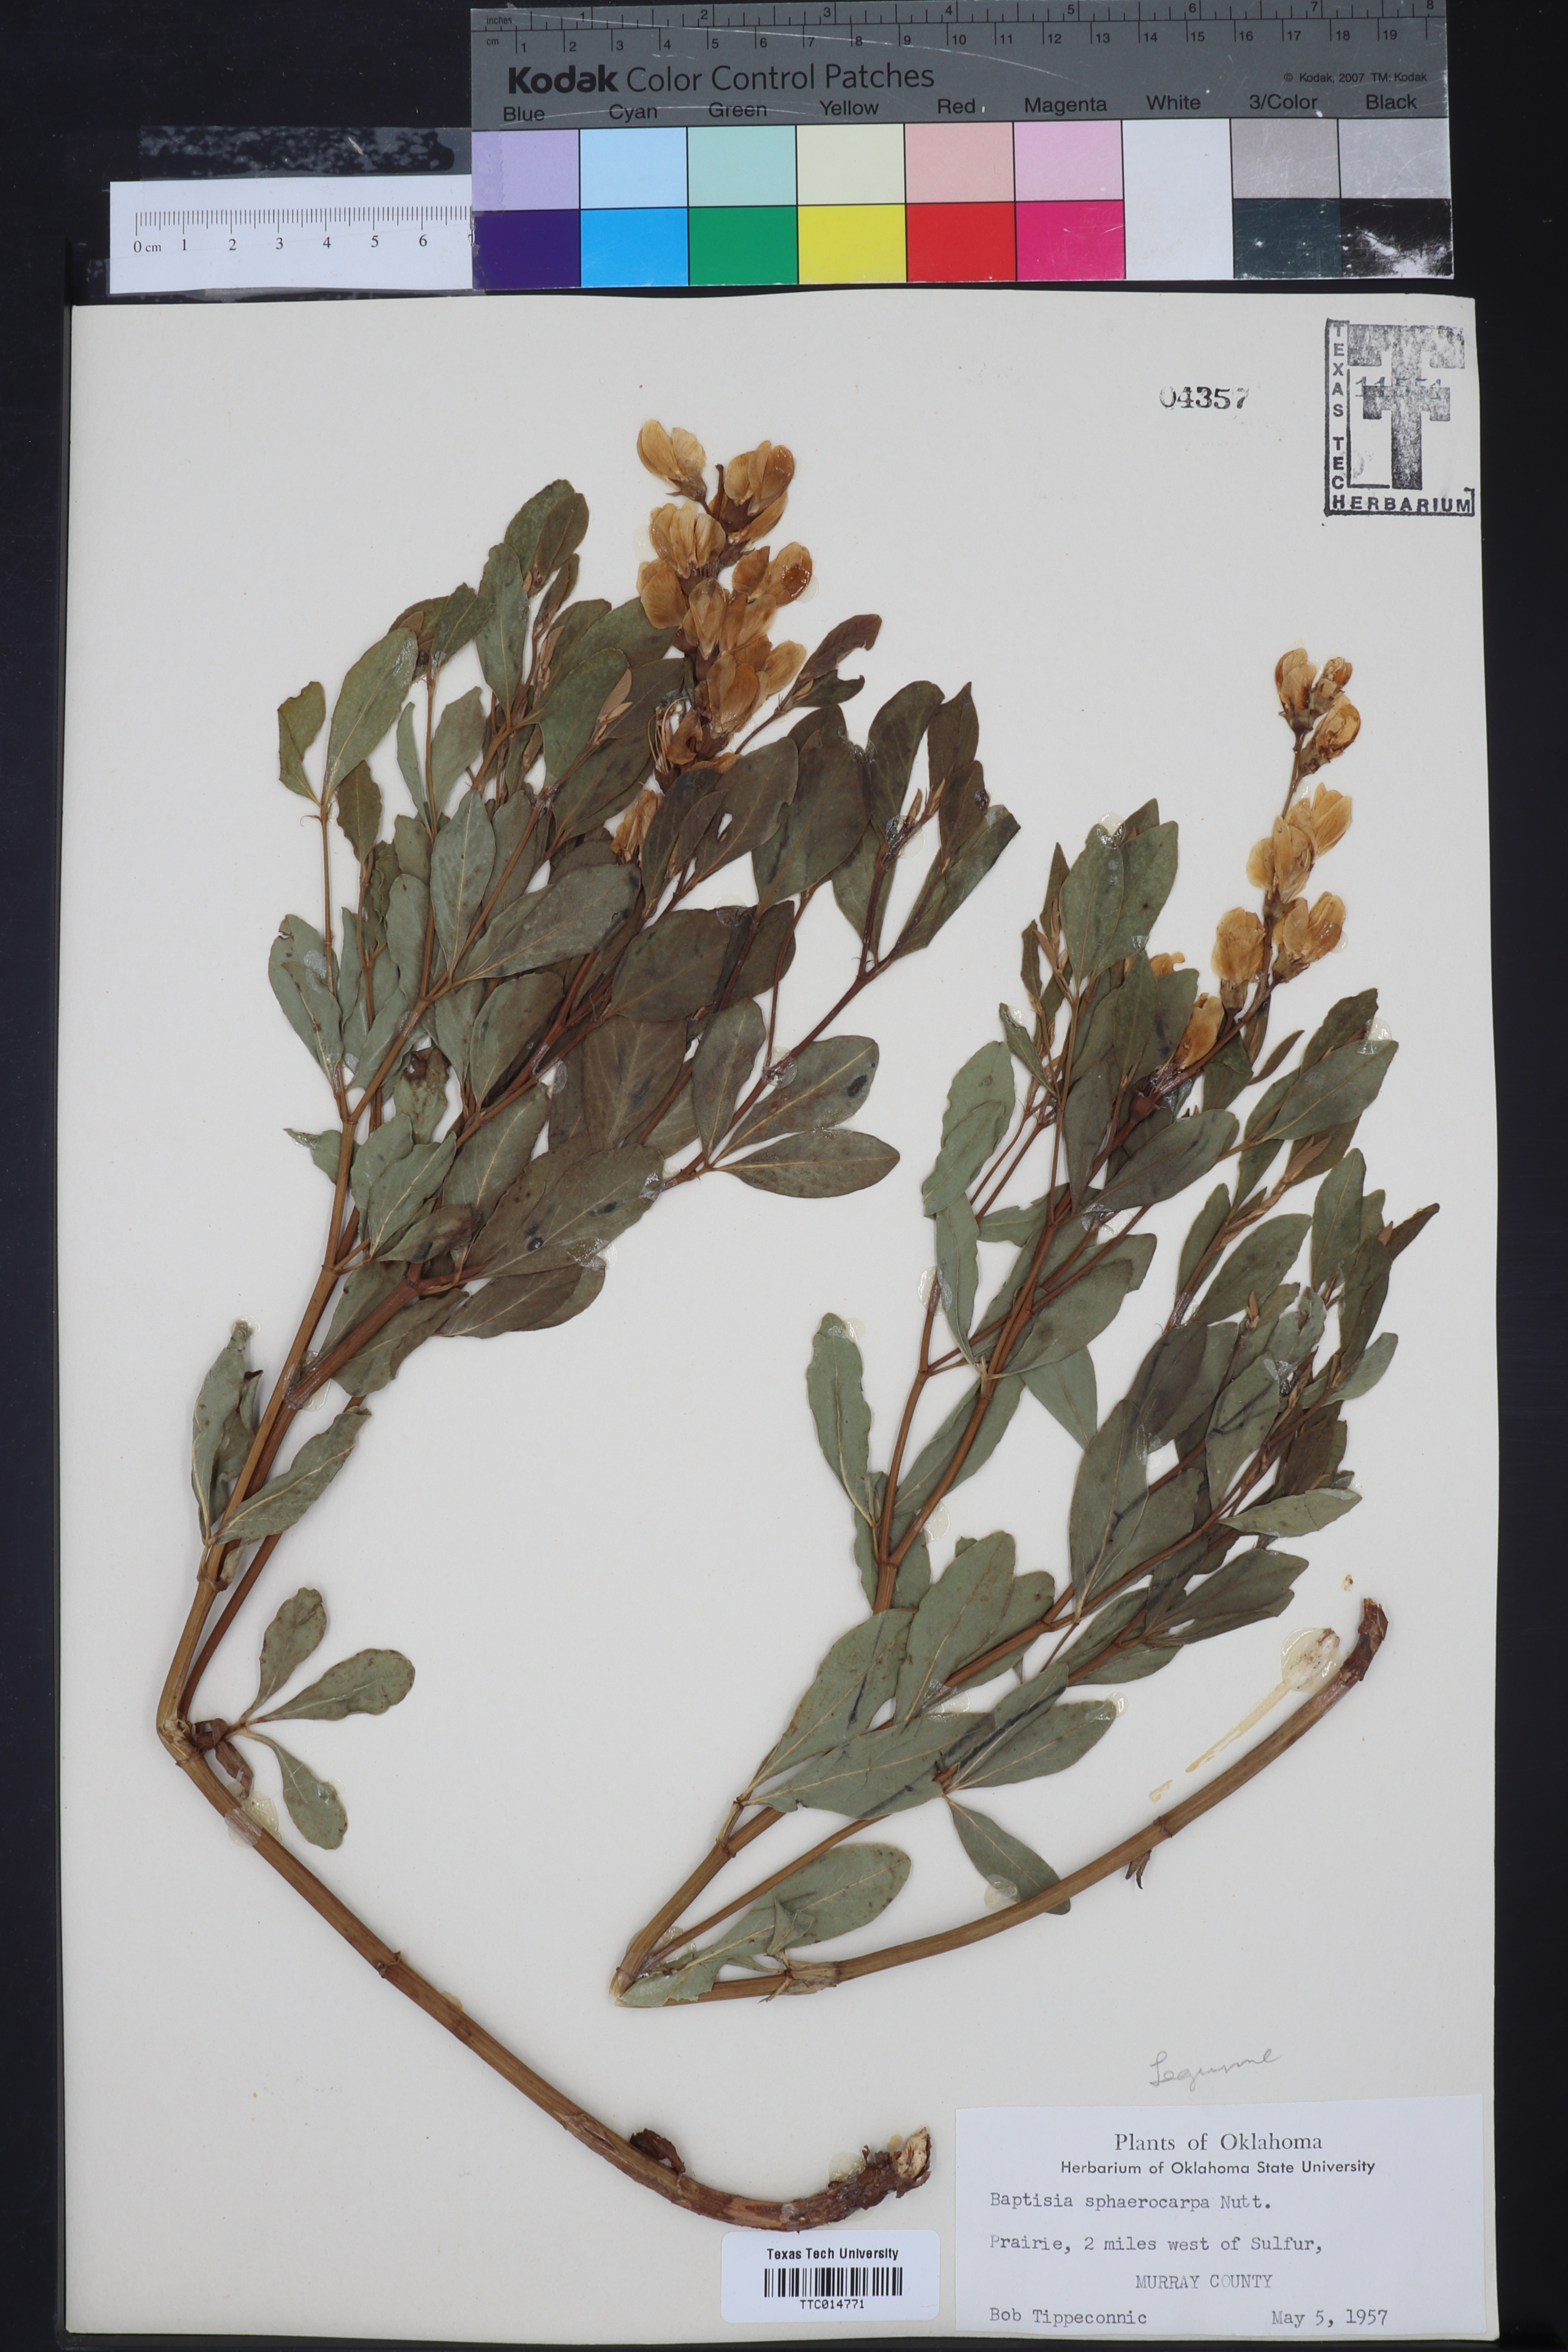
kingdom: Plantae
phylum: Tracheophyta
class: Magnoliopsida
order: Fabales
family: Fabaceae
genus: Baptisia
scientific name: Baptisia sphaerocarpa
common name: Round wild indigo
